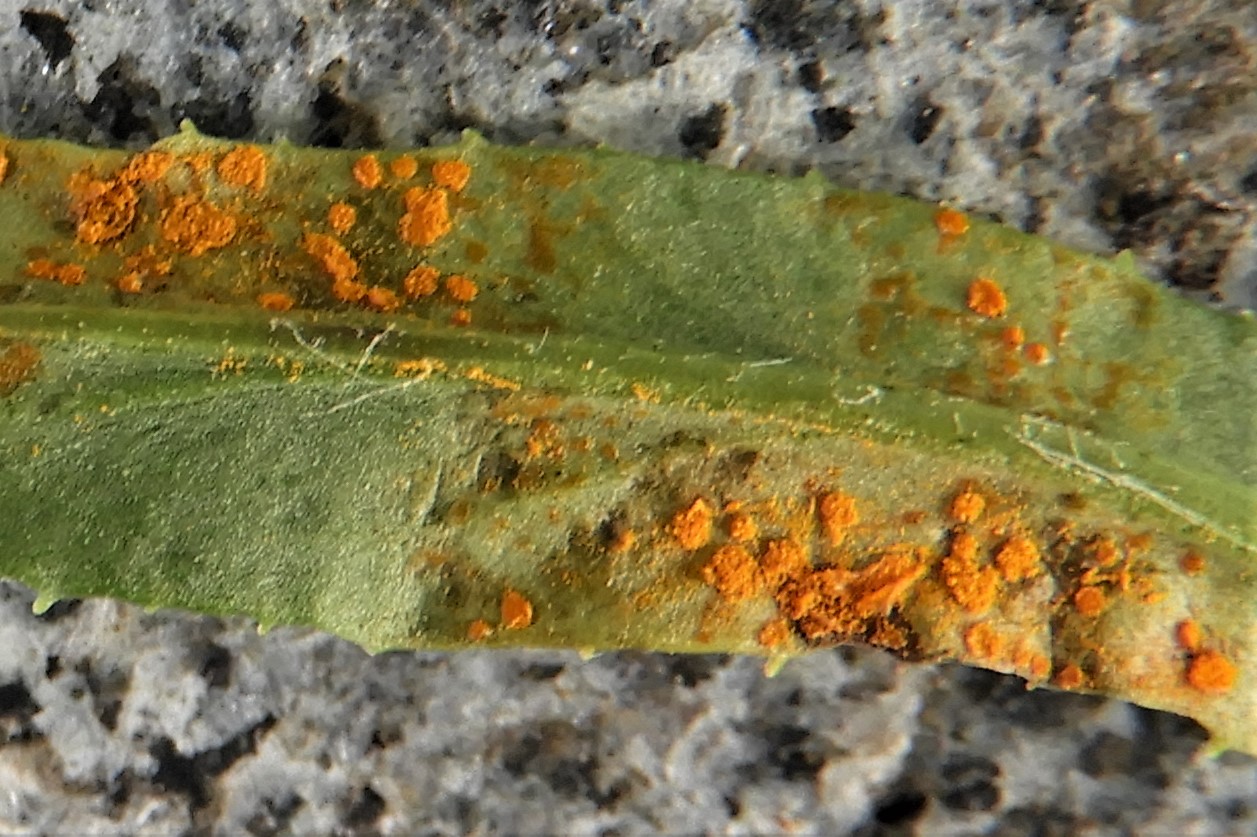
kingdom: Fungi
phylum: Basidiomycota
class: Pucciniomycetes
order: Pucciniales
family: Coleosporiaceae
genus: Coleosporium
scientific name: Coleosporium senecionis
